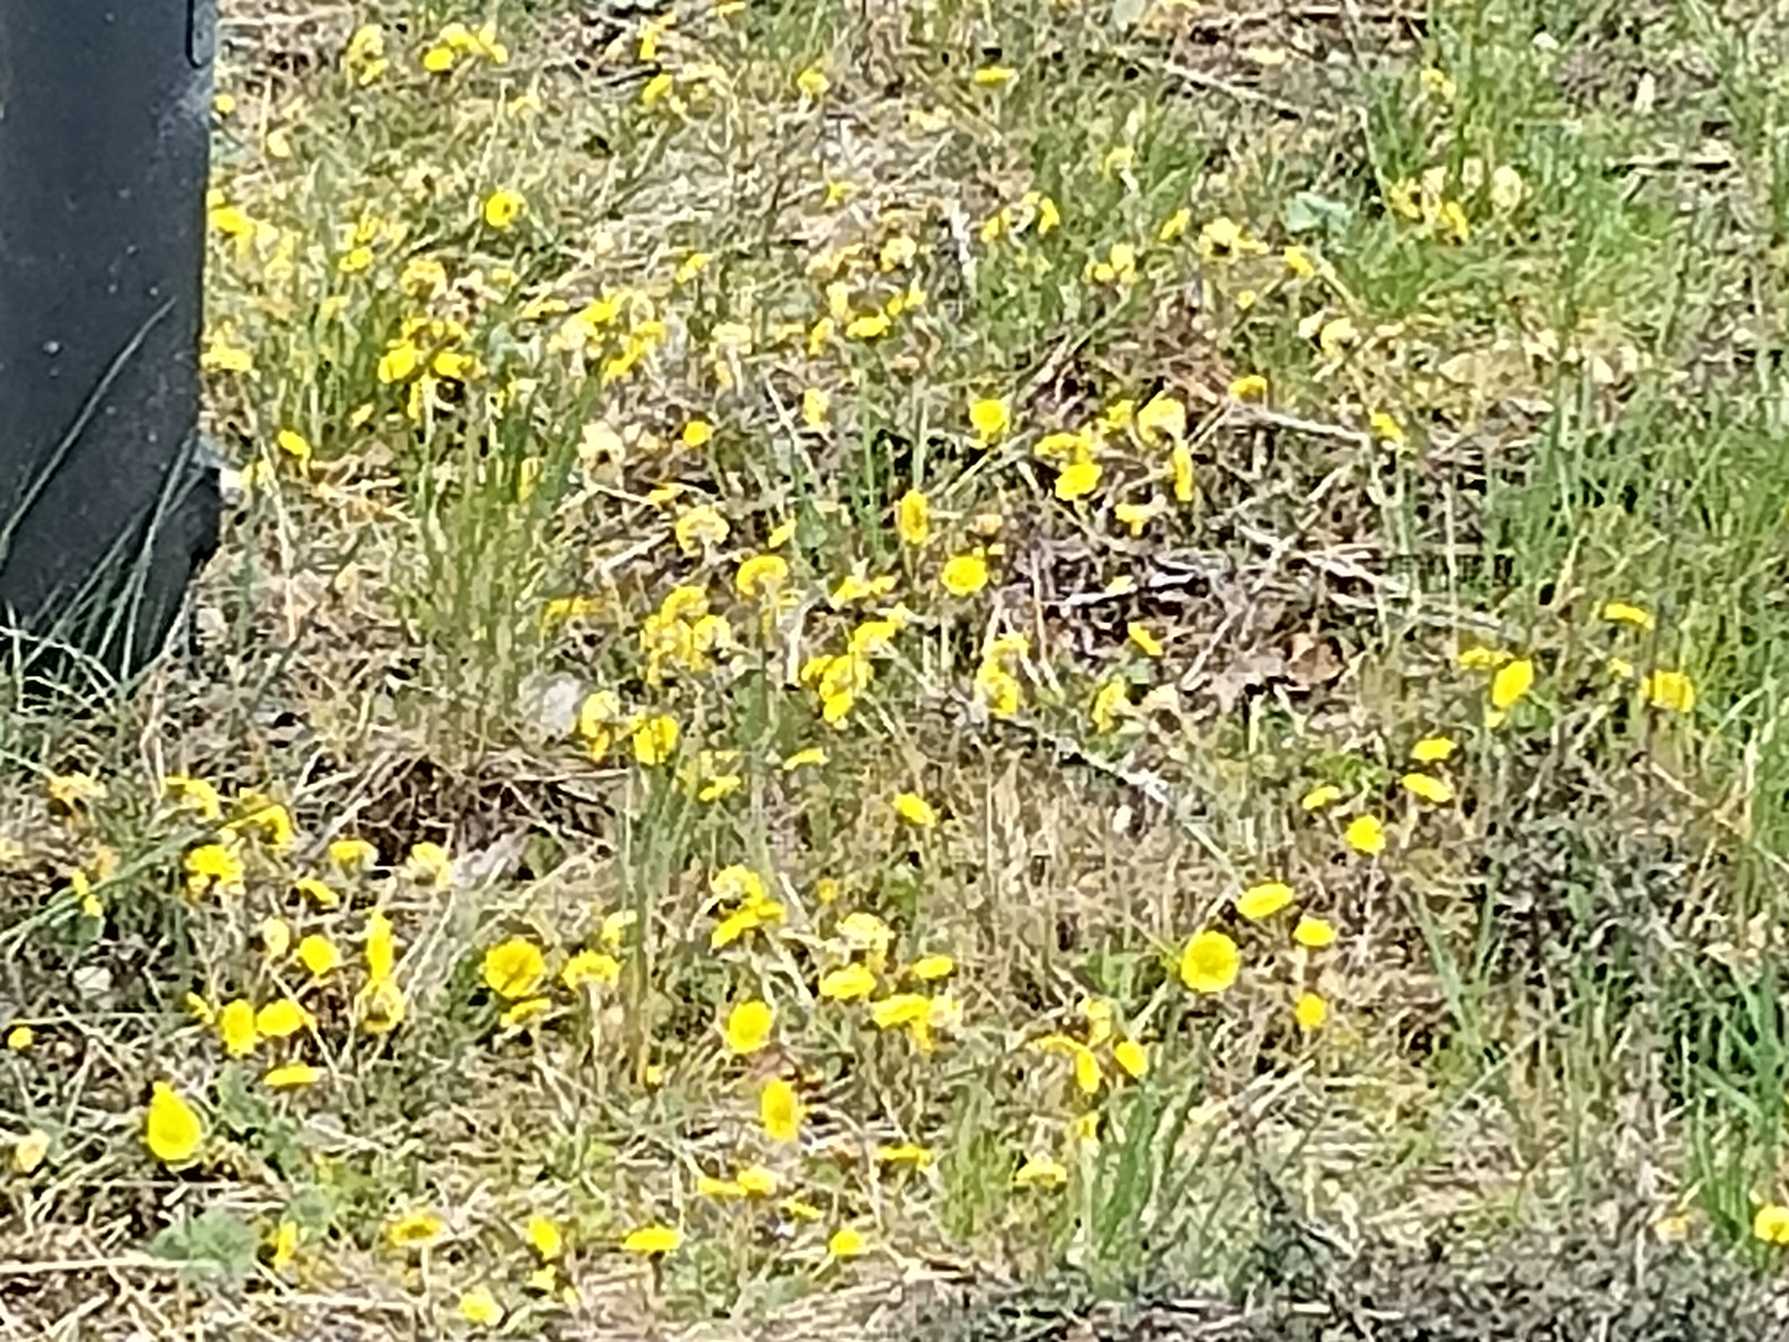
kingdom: Plantae
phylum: Tracheophyta
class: Magnoliopsida
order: Asterales
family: Asteraceae
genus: Tussilago
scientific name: Tussilago farfara
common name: Følfod
